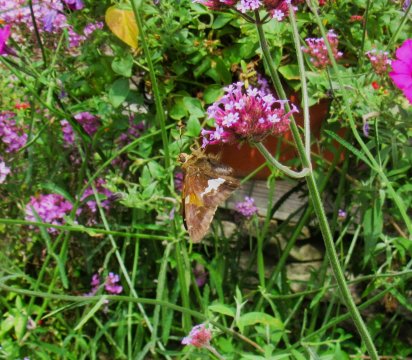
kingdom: Animalia
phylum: Arthropoda
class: Insecta
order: Lepidoptera
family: Hesperiidae
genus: Epargyreus
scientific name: Epargyreus clarus
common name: Silver-spotted Skipper
